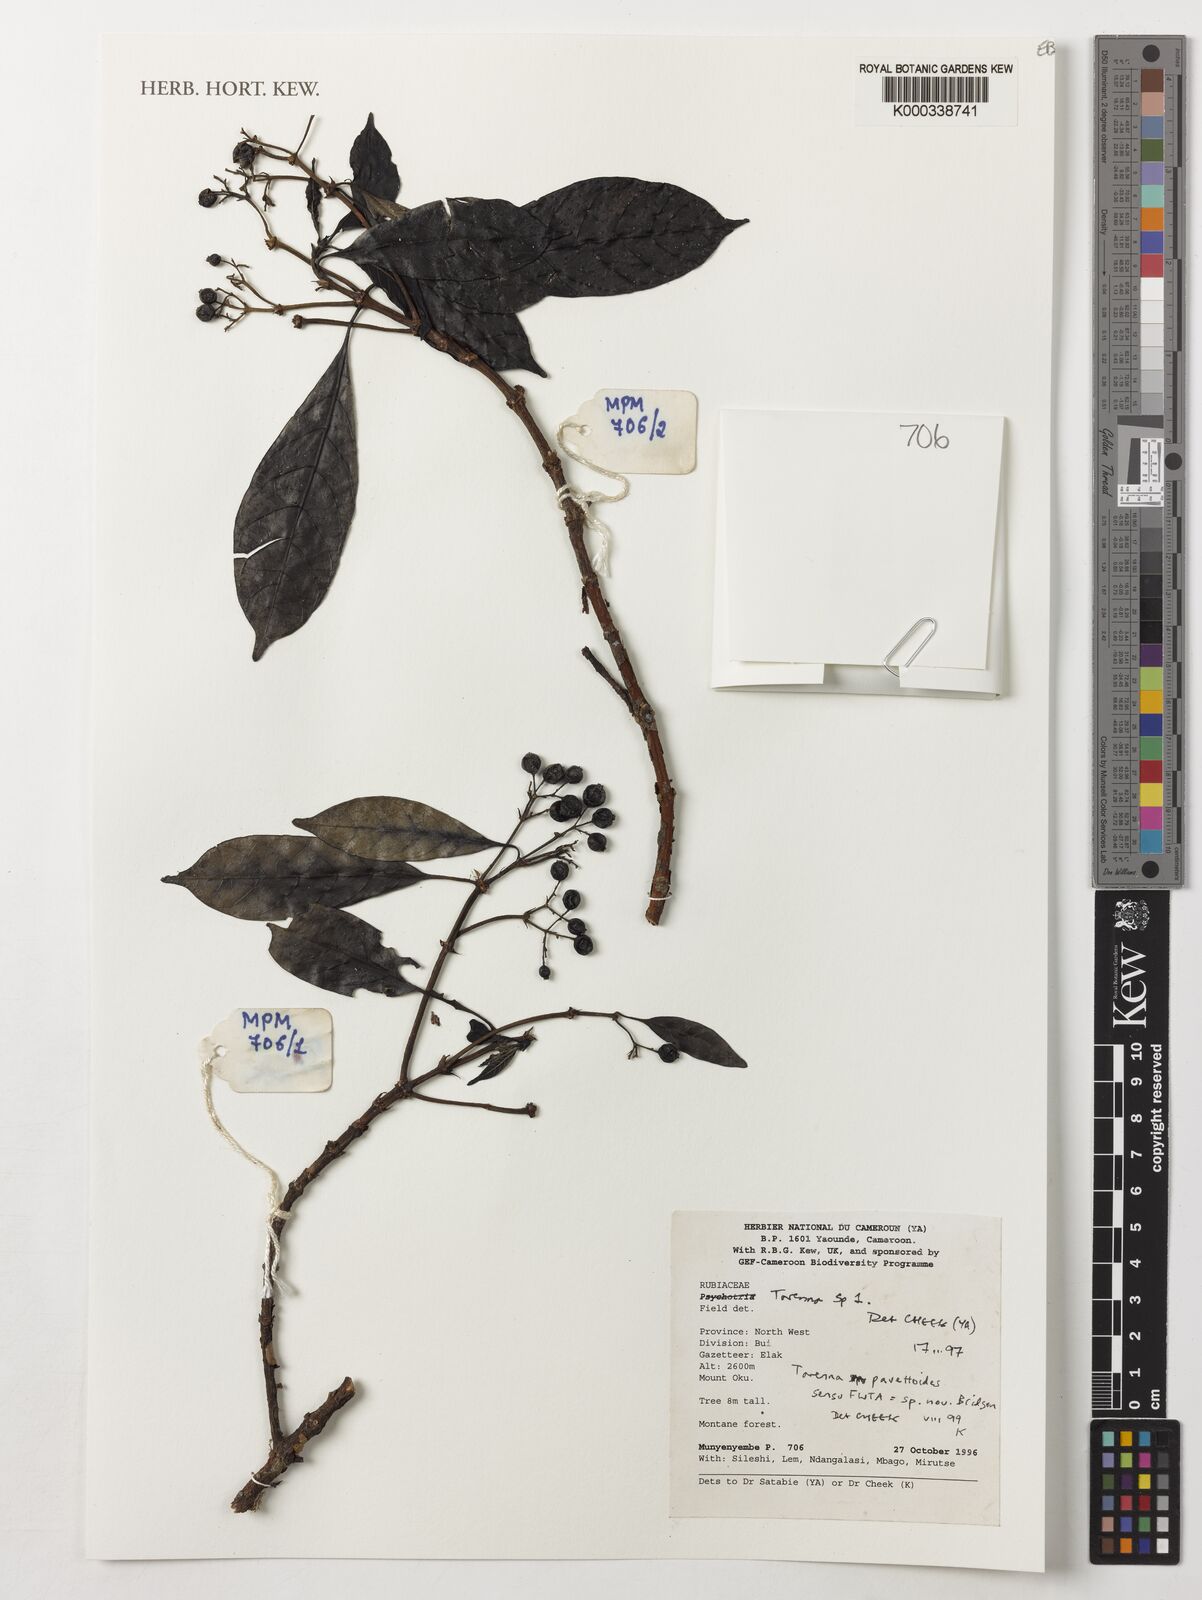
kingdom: Plantae
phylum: Tracheophyta
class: Magnoliopsida
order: Gentianales
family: Rubiaceae
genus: Tarenna
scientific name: Tarenna pavettoides
